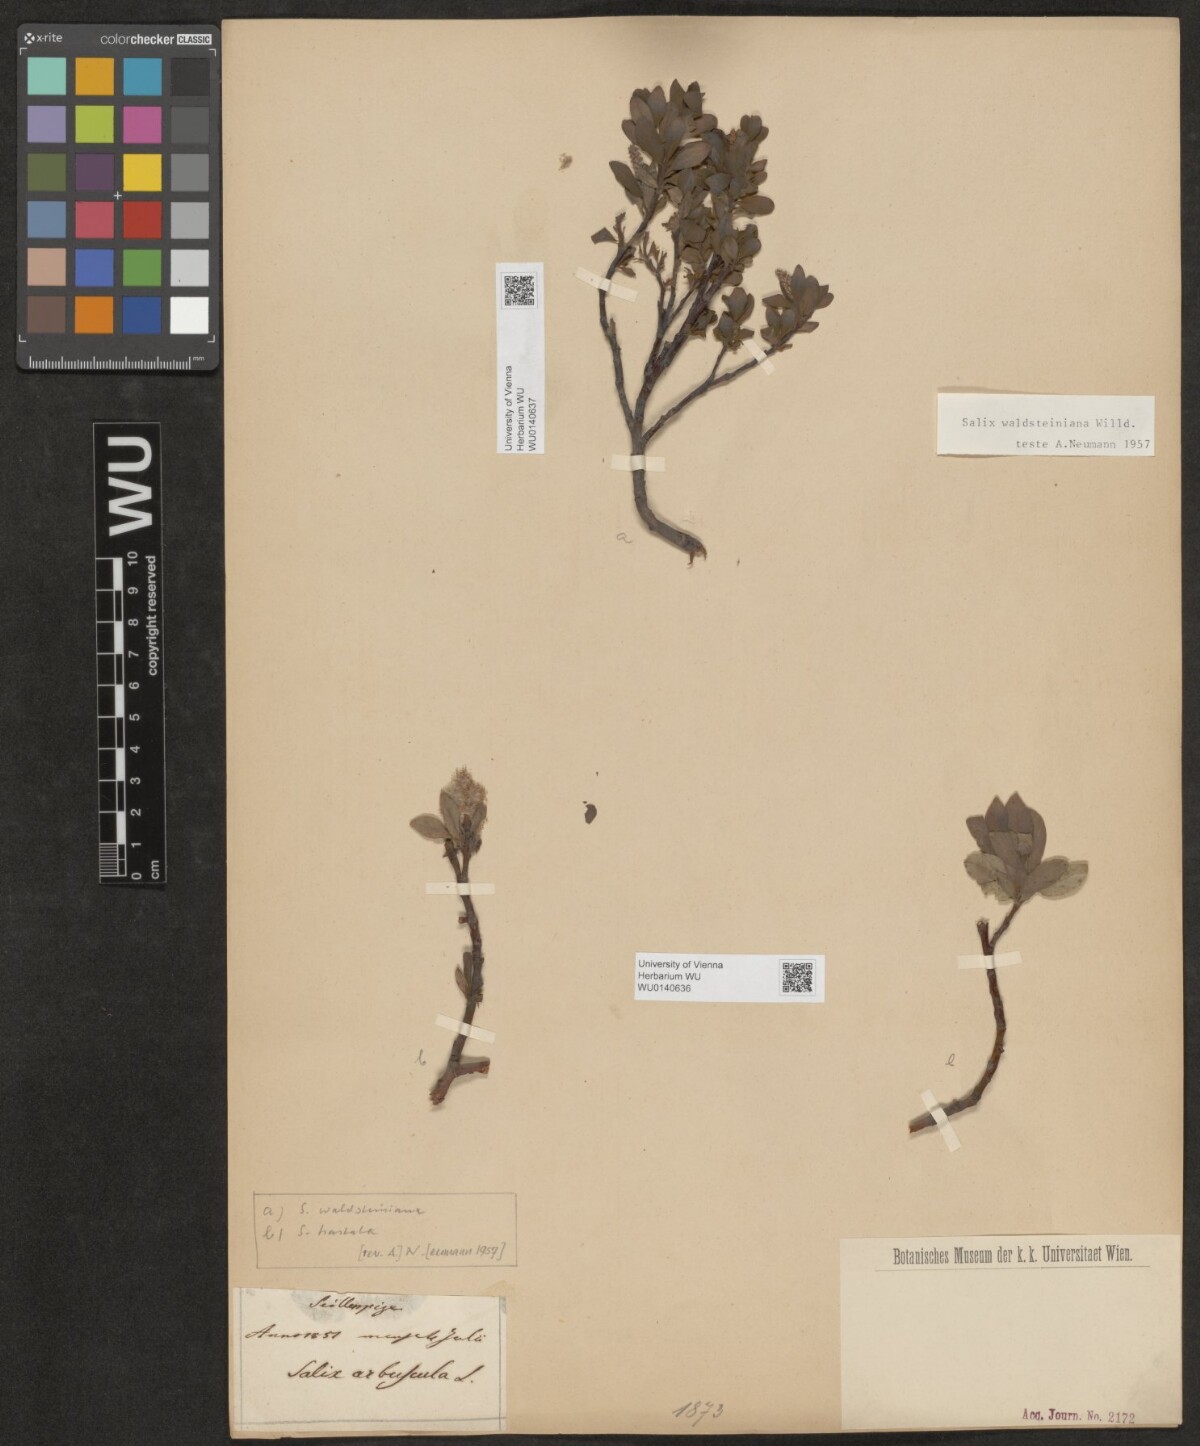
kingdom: Plantae
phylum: Tracheophyta
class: Magnoliopsida
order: Malpighiales
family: Salicaceae
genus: Salix
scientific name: Salix waldsteiniana
